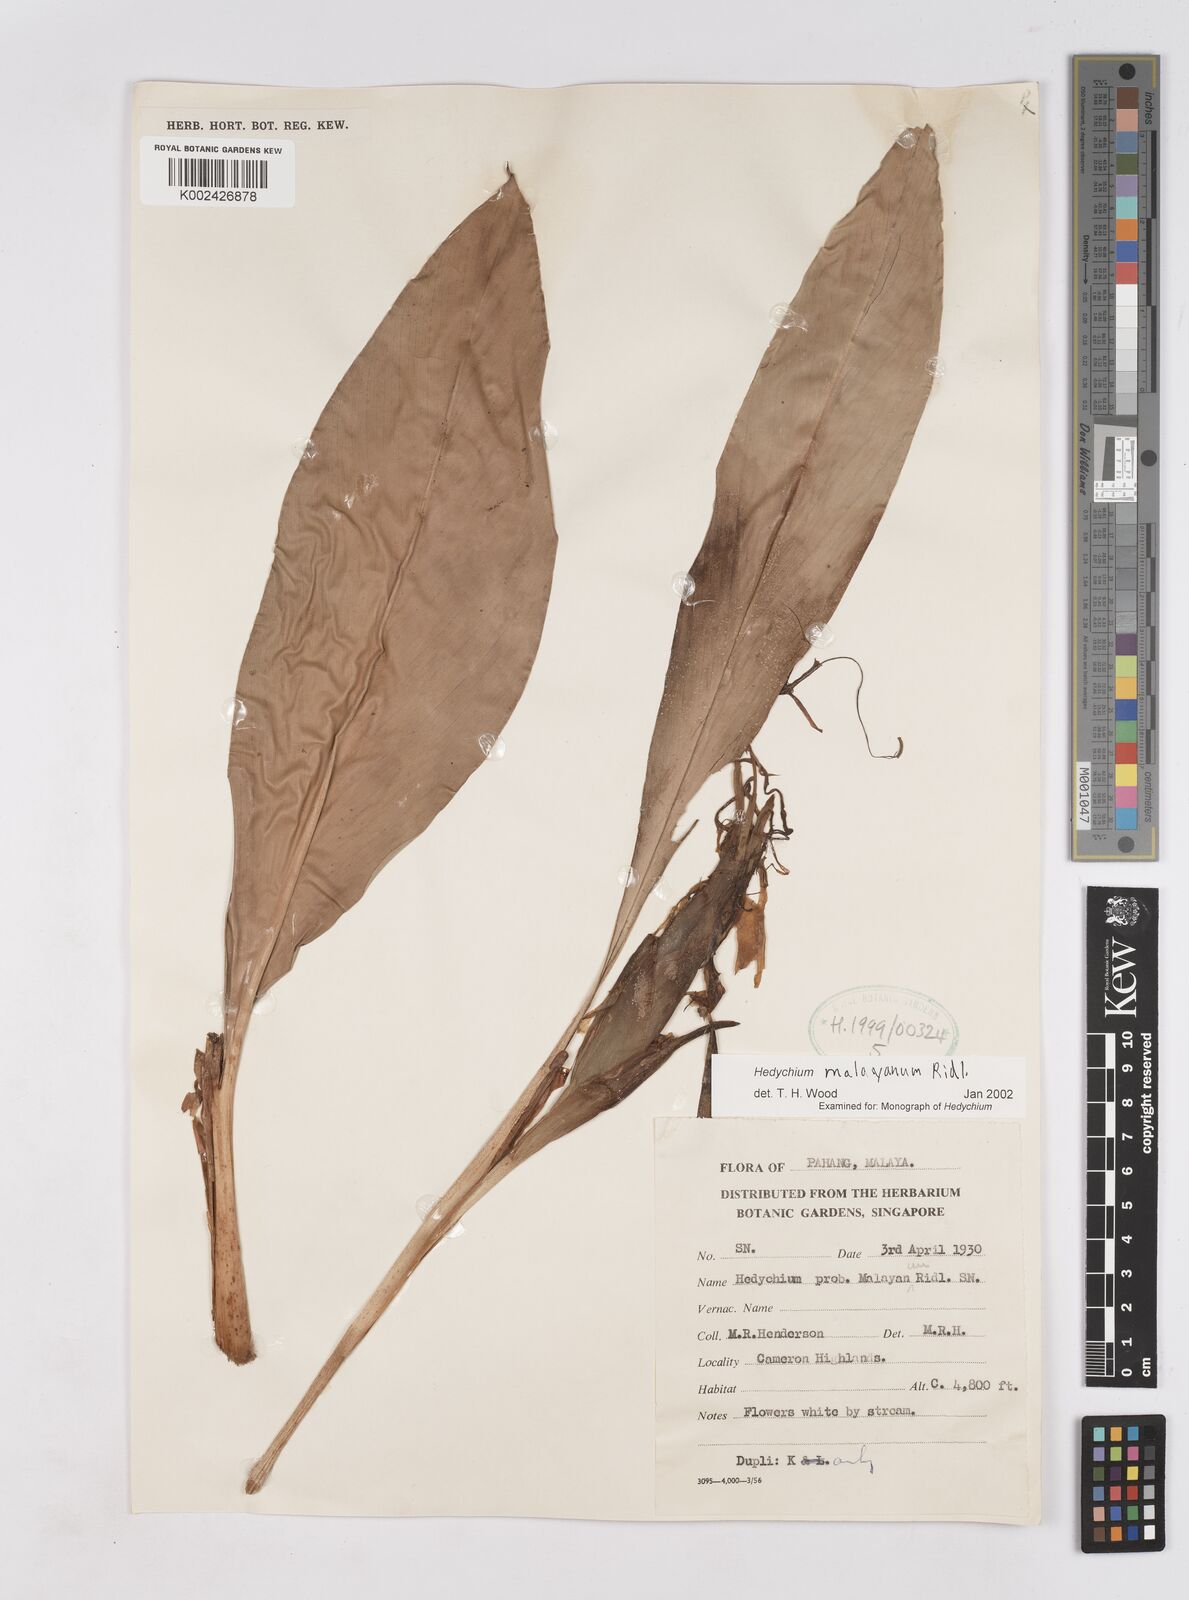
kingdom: Plantae
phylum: Tracheophyta
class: Liliopsida
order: Zingiberales
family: Zingiberaceae
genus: Hedychium
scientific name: Hedychium malayanum
